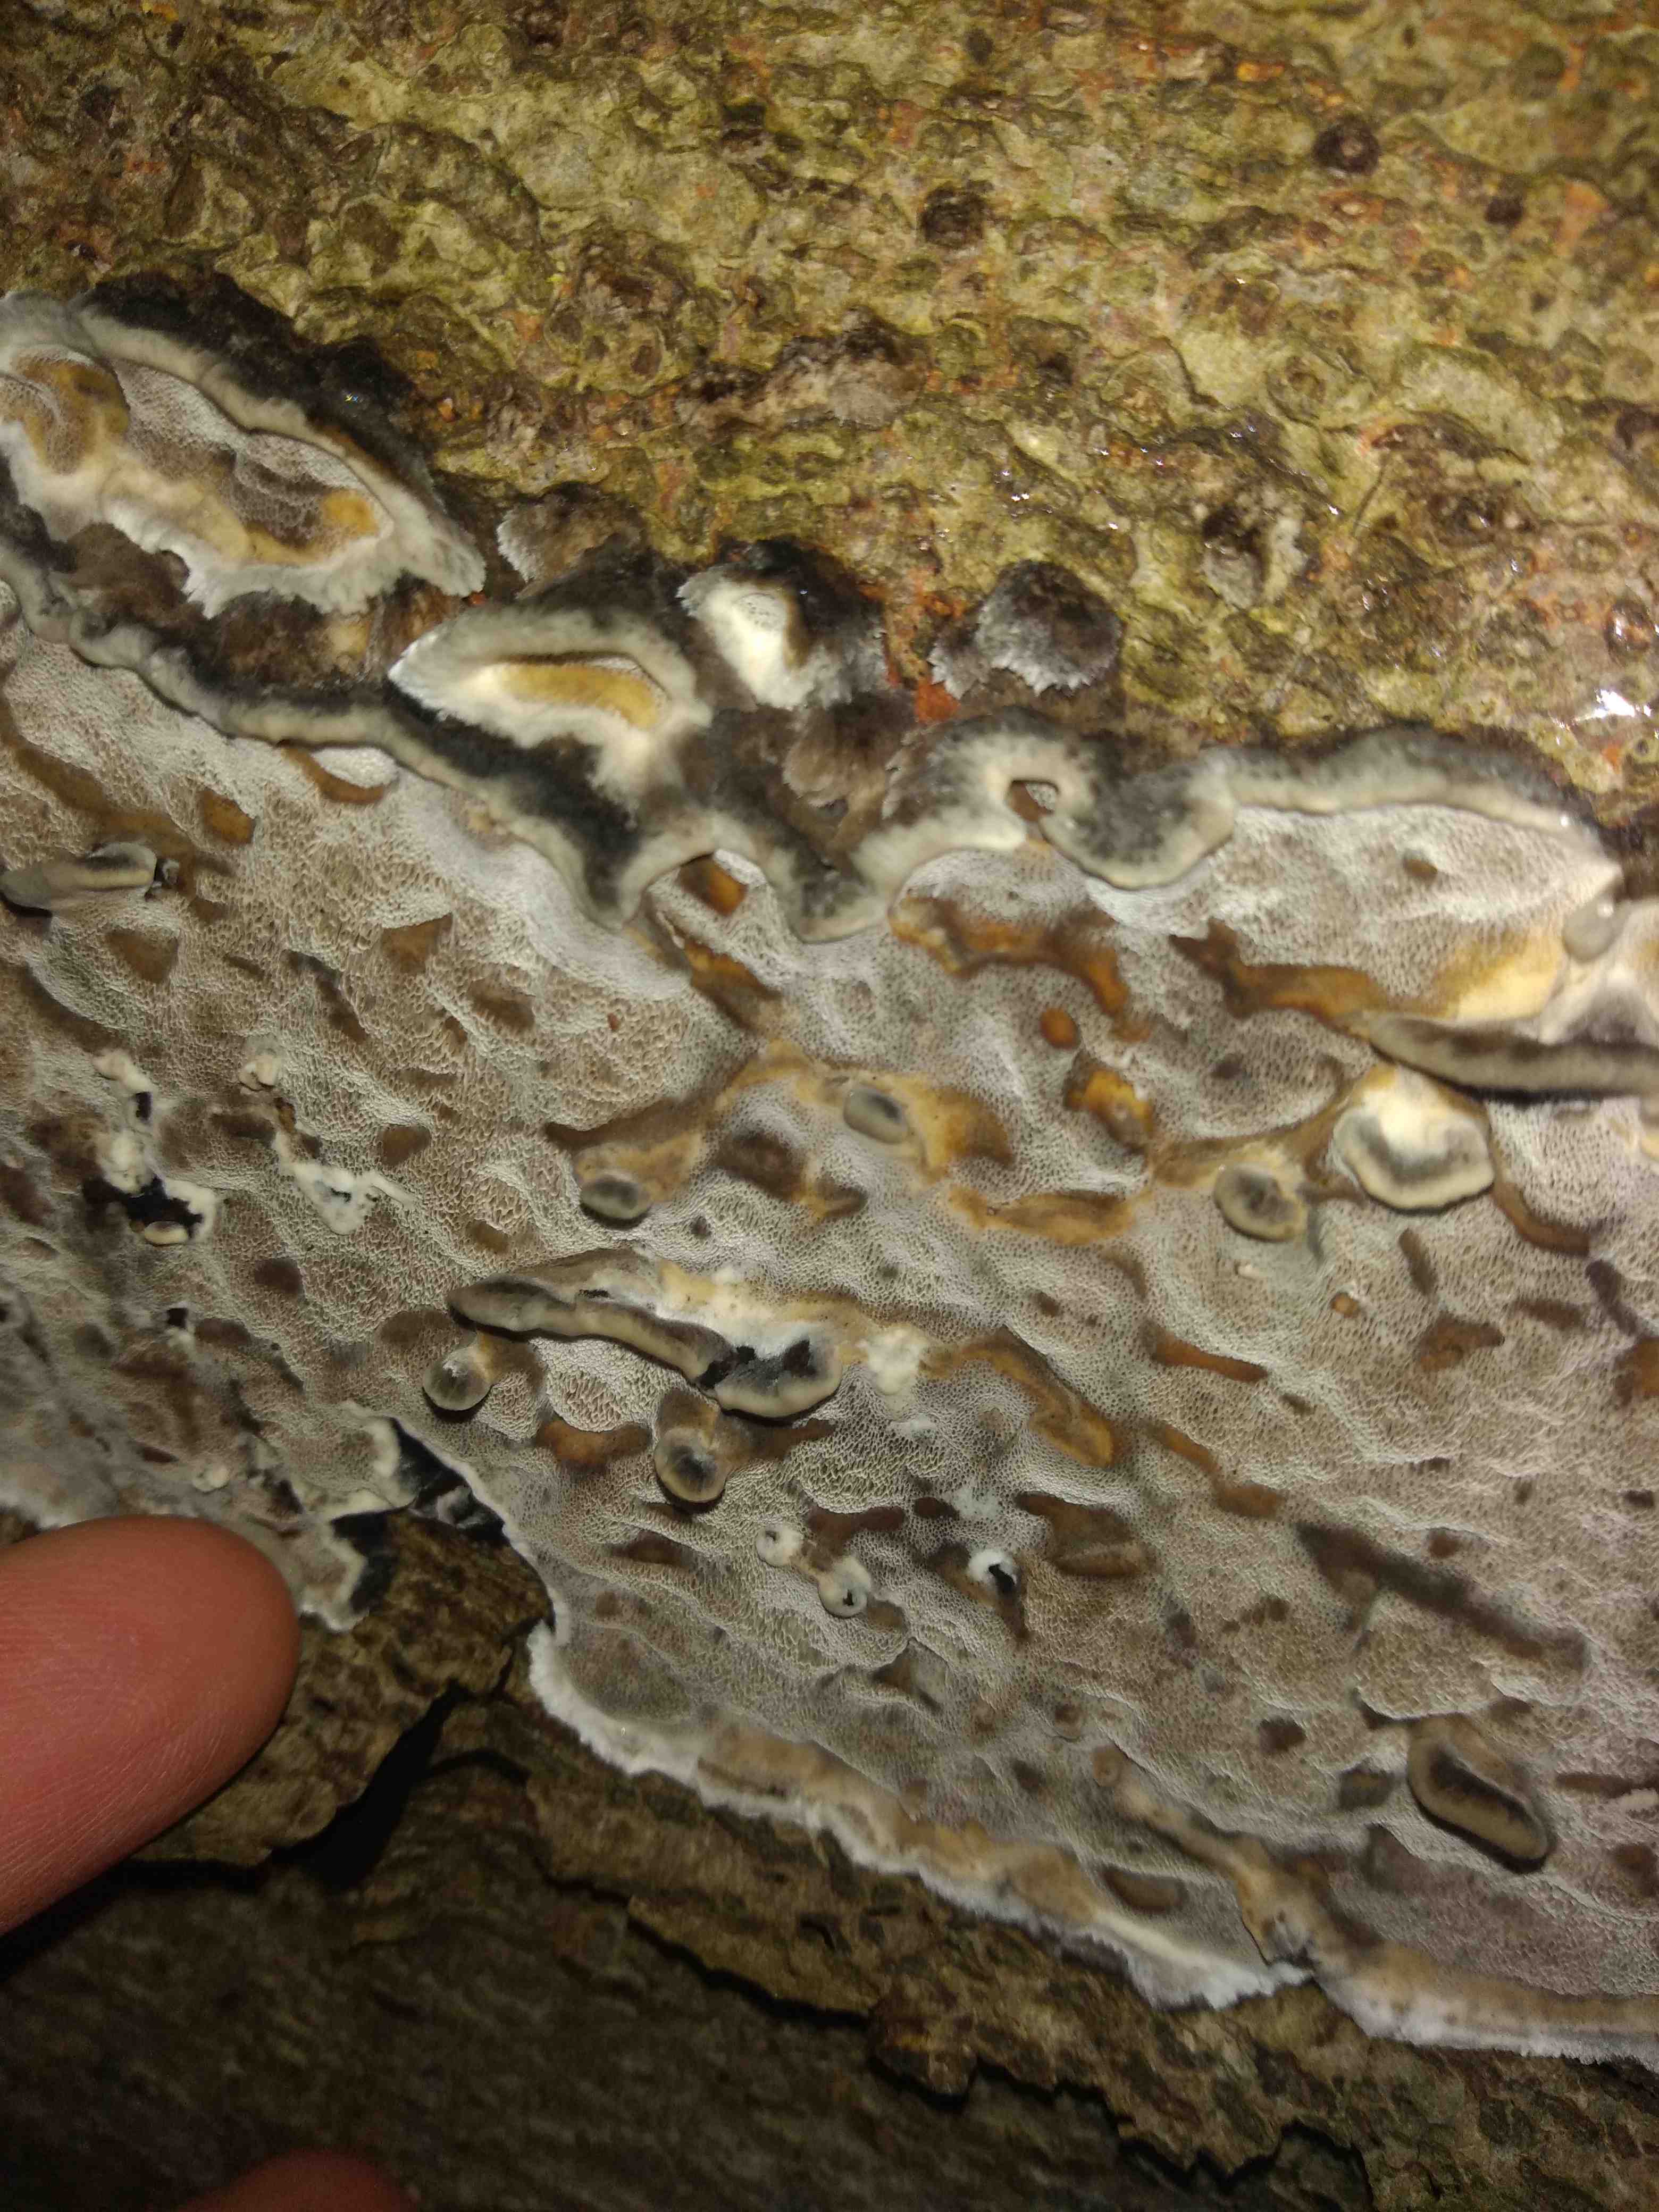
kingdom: Fungi
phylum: Basidiomycota
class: Agaricomycetes
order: Polyporales
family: Phanerochaetaceae
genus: Bjerkandera
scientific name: Bjerkandera adusta
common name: sveden sodporesvamp
